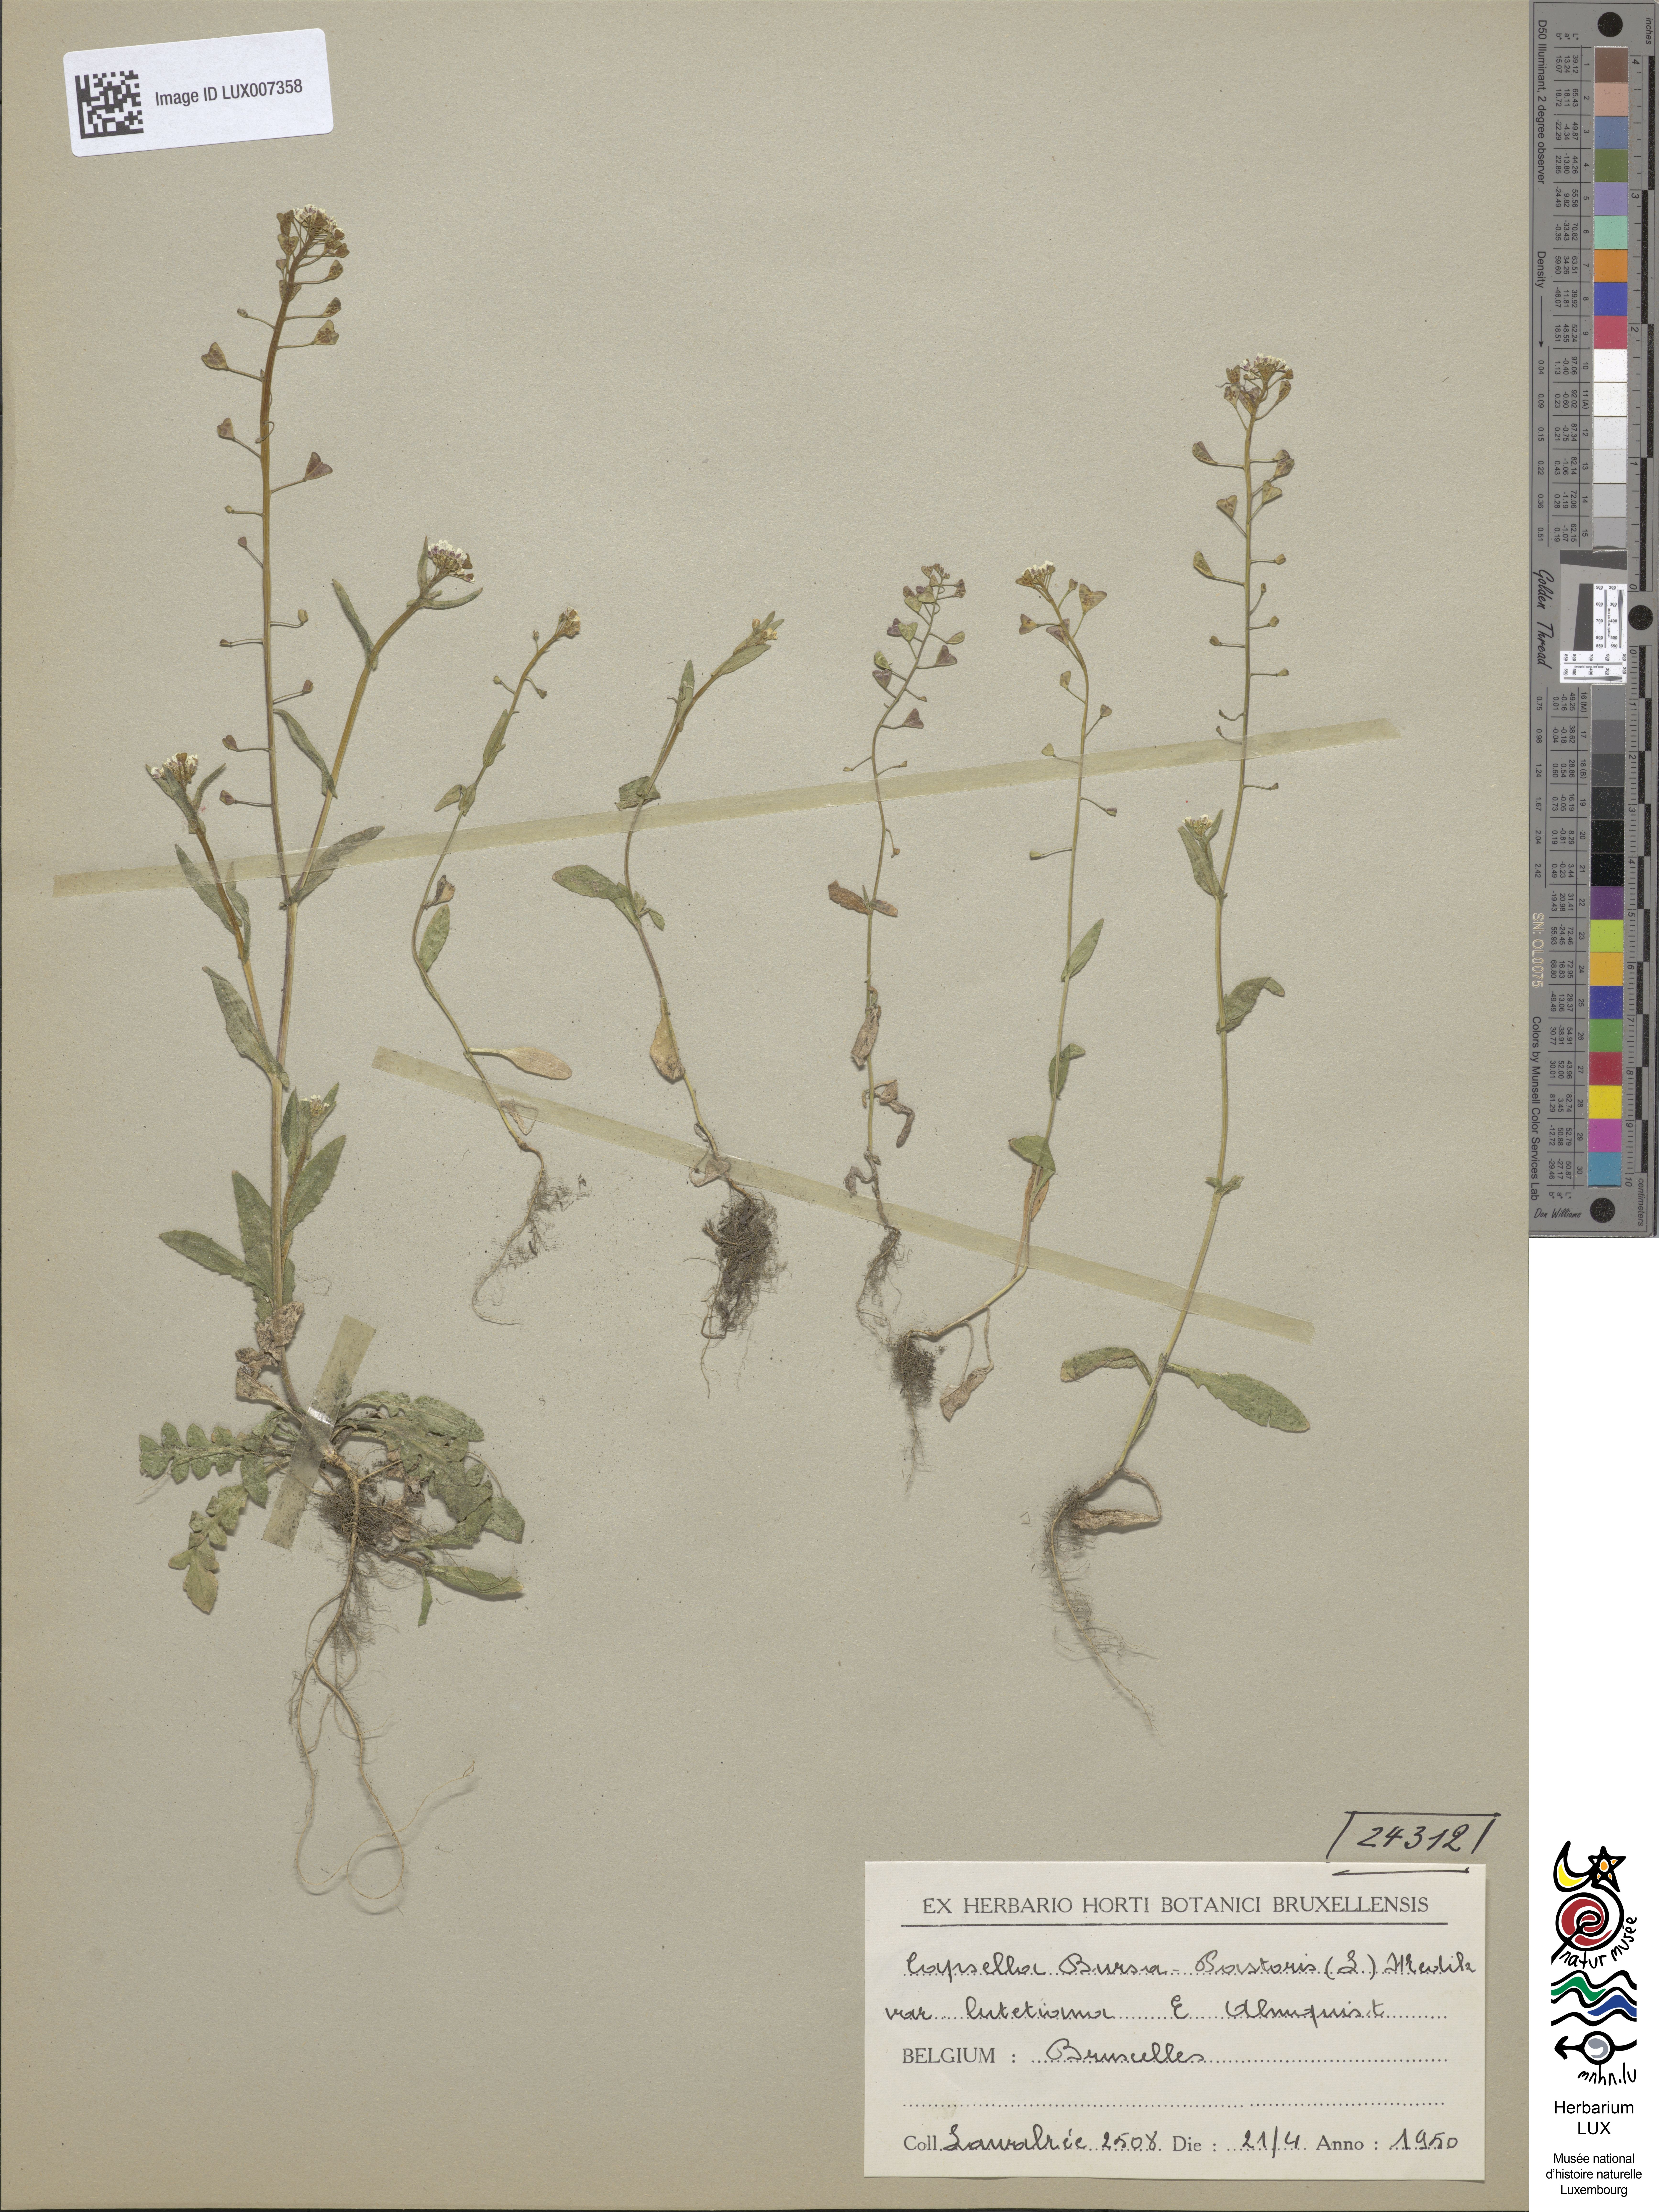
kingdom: Plantae
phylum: Tracheophyta
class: Magnoliopsida
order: Brassicales
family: Brassicaceae
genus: Capsella
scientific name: Capsella bursa-pastoris
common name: Shepherd's purse
